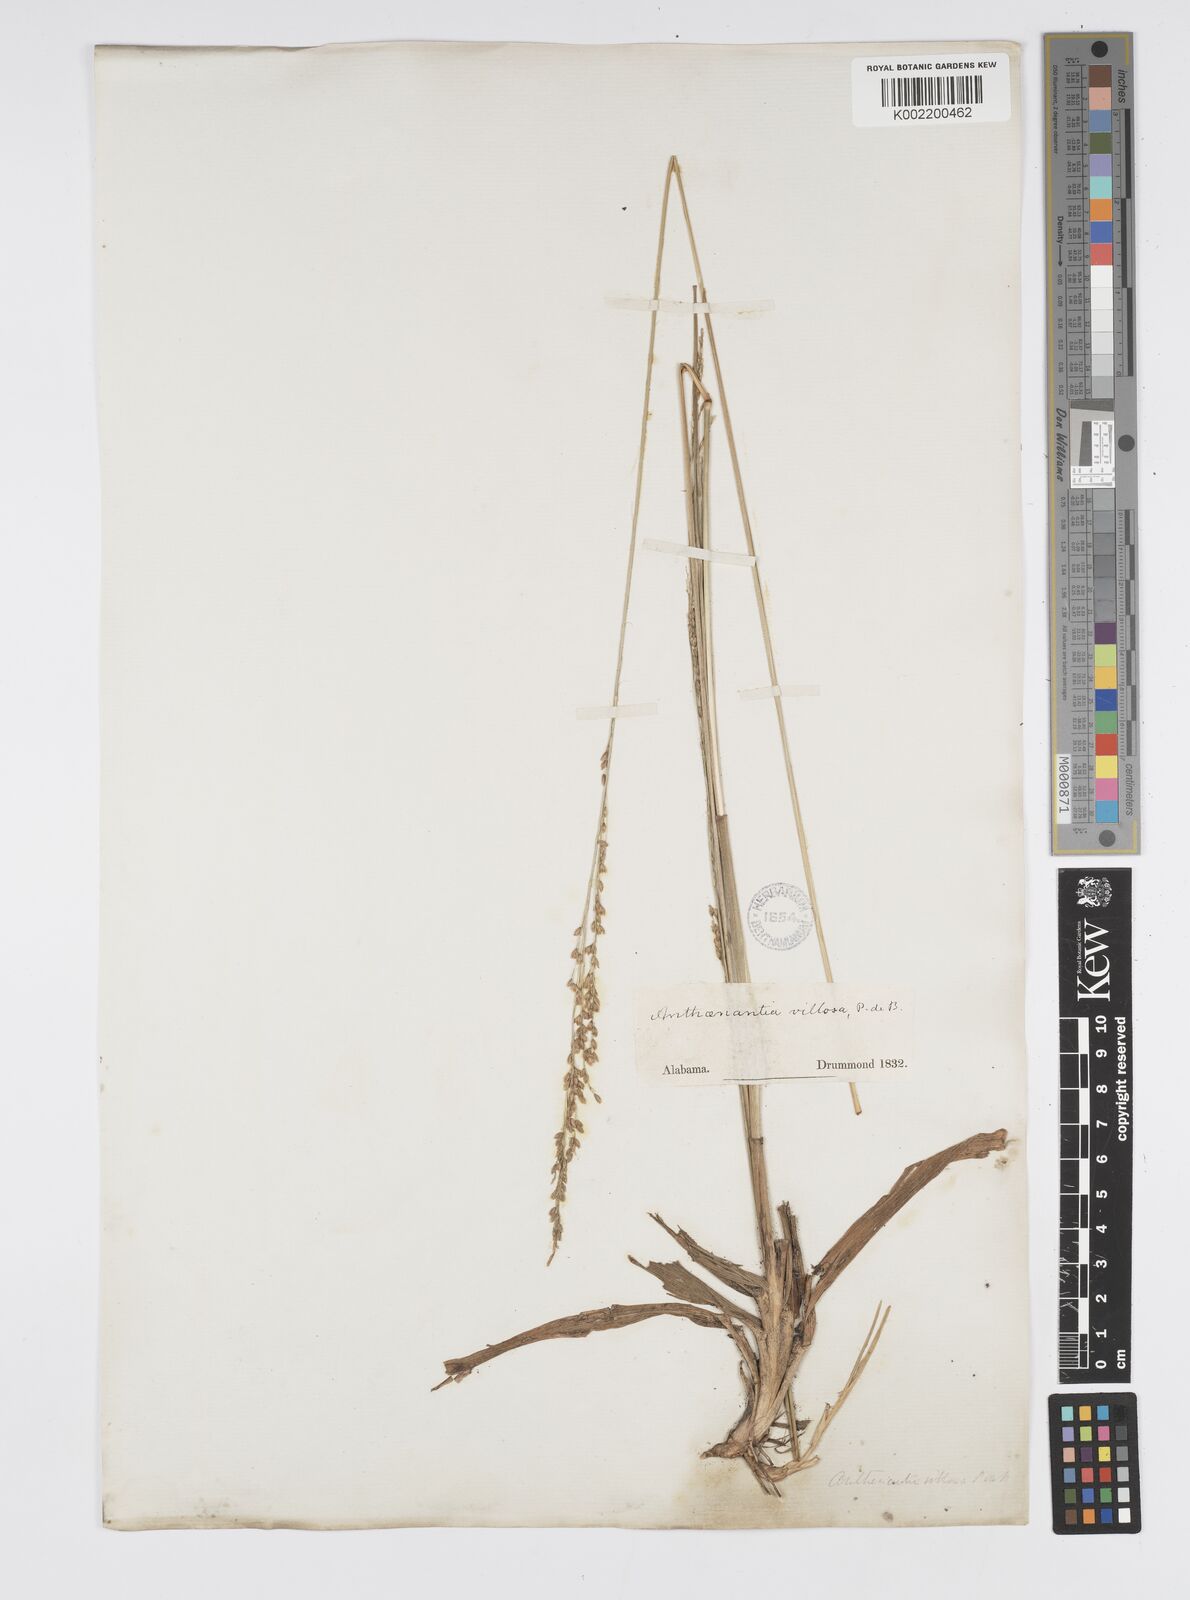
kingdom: Plantae
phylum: Tracheophyta
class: Liliopsida
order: Poales
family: Poaceae
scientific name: Poaceae
